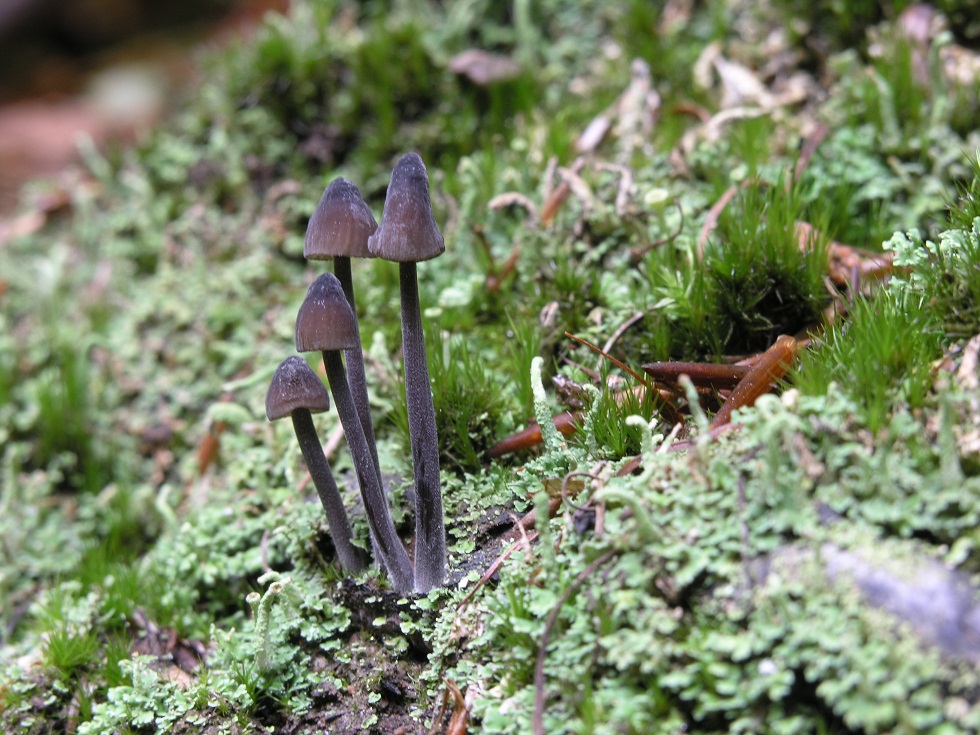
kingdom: Fungi
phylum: Basidiomycota
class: Agaricomycetes
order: Agaricales
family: Mycenaceae
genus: Mycena
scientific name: Mycena galopus
